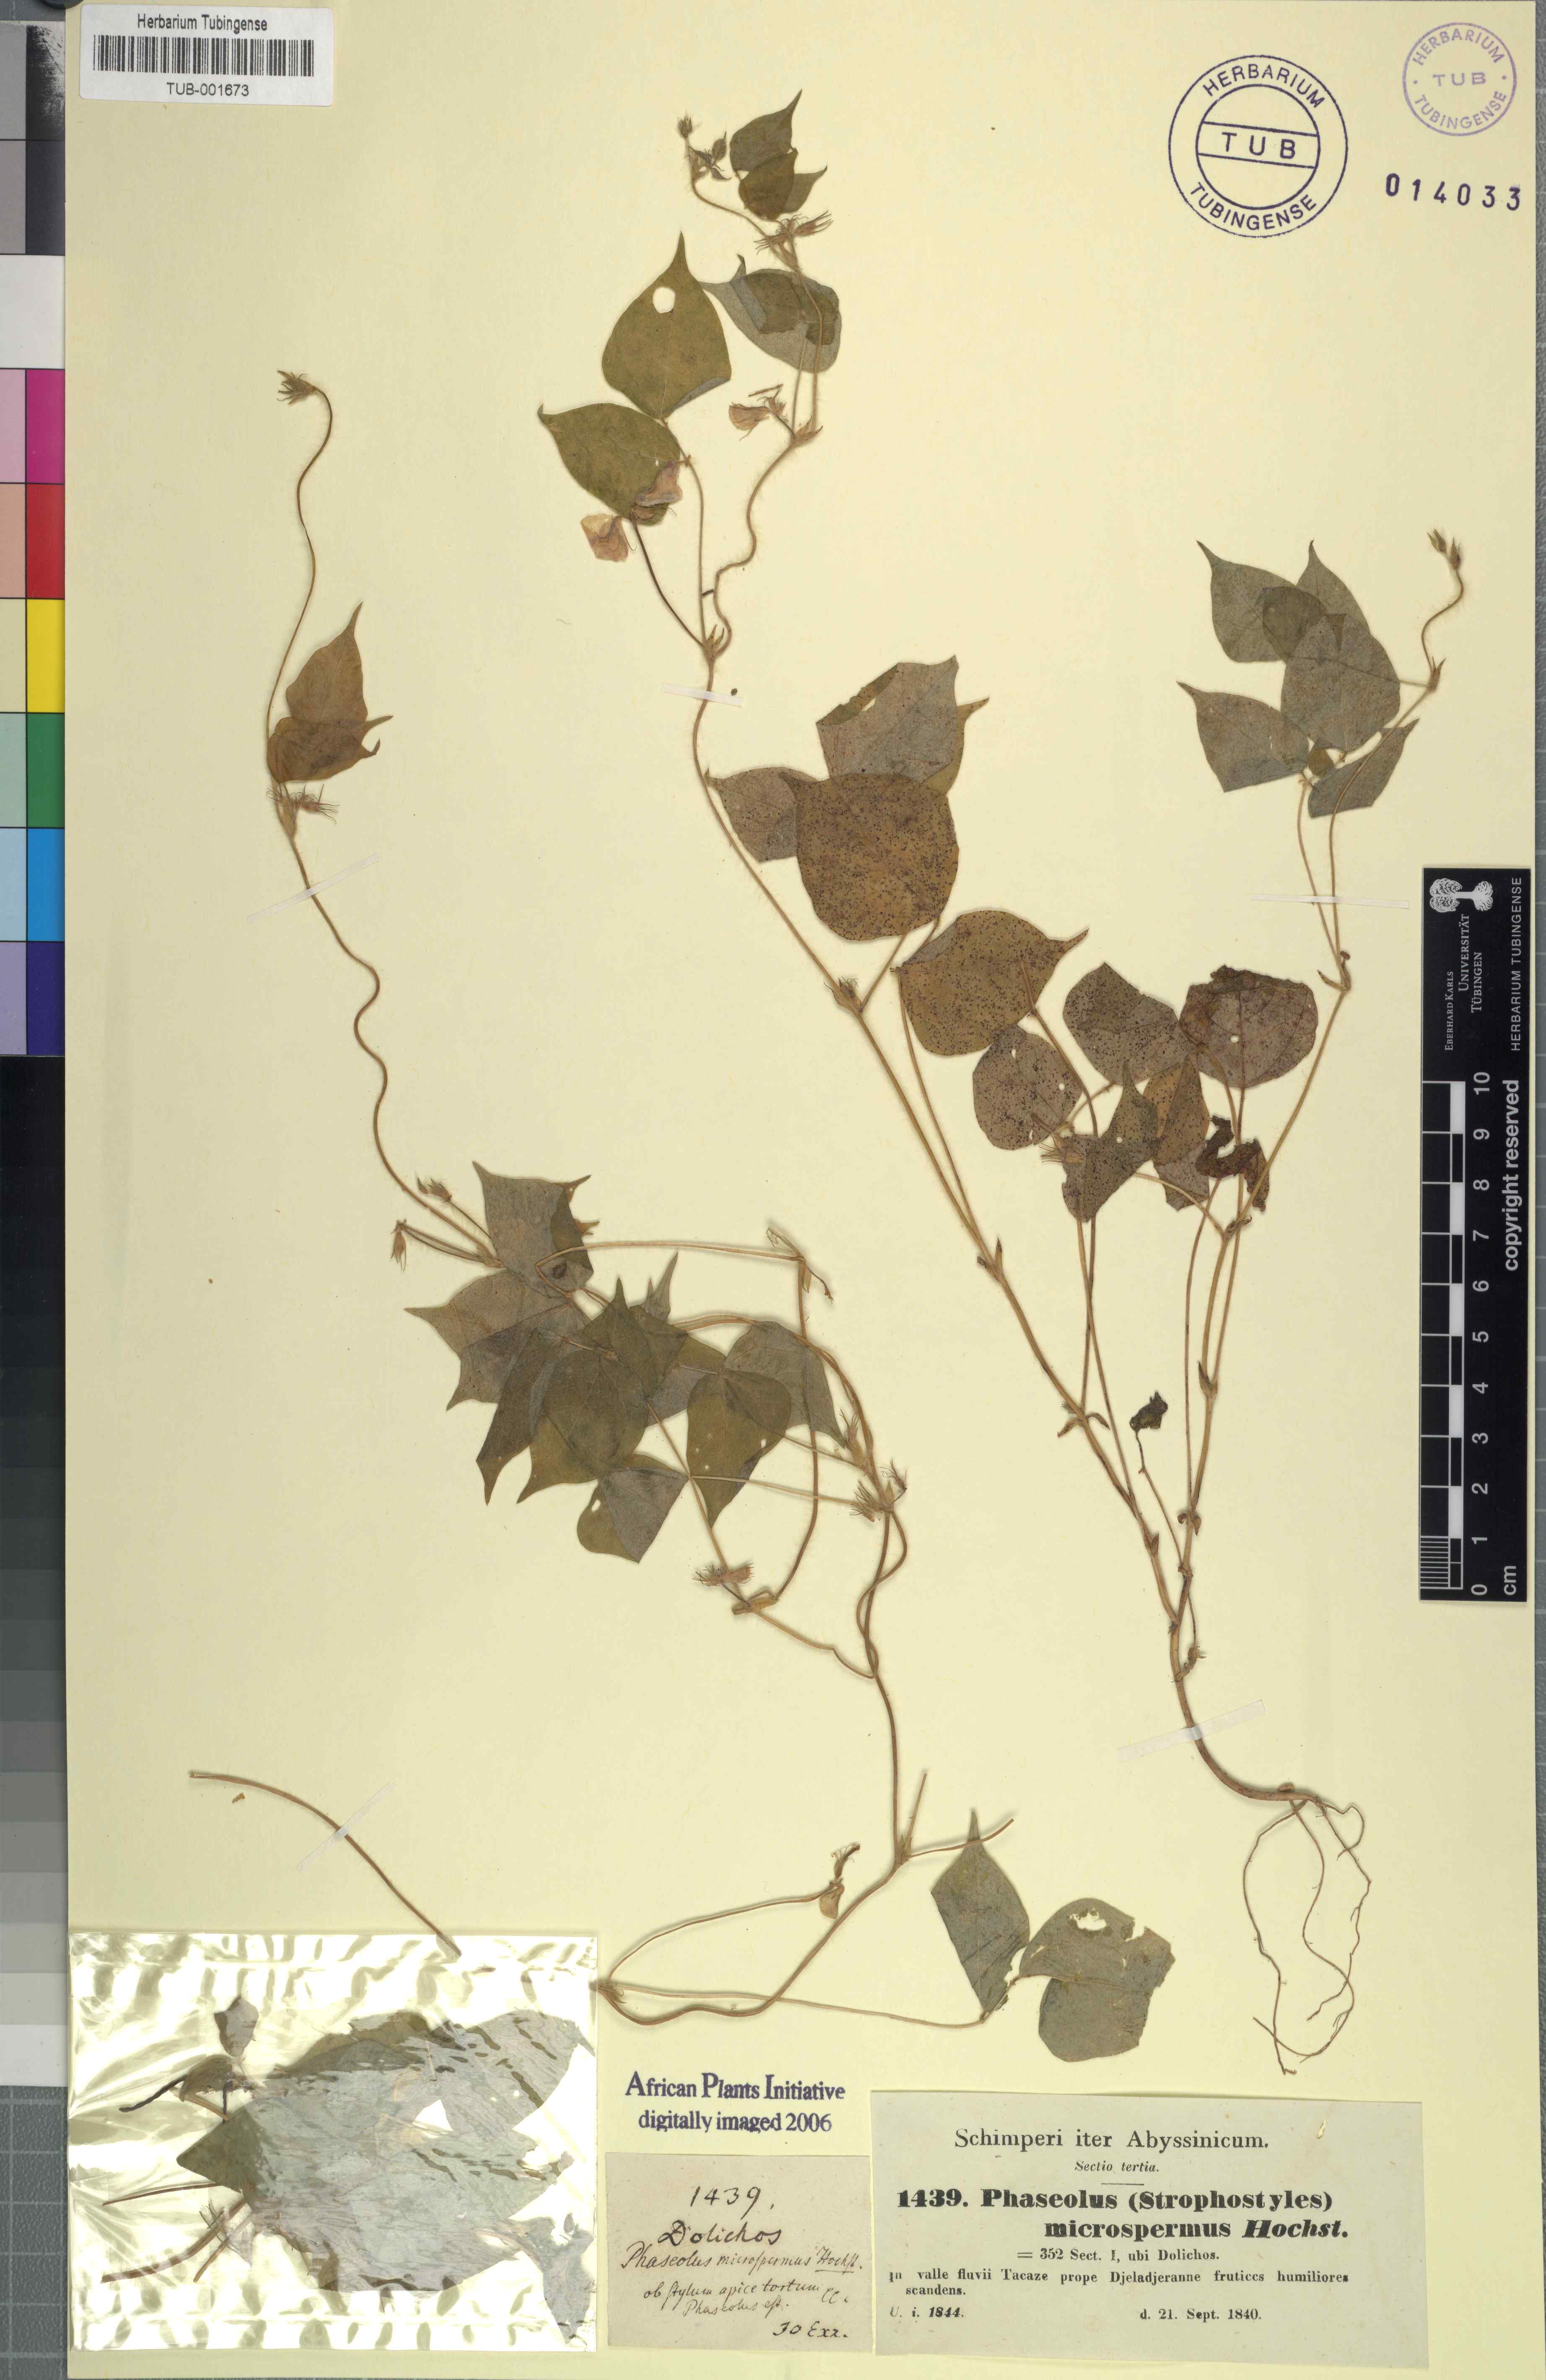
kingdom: Plantae
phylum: Tracheophyta
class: Magnoliopsida
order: Fabales
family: Fabaceae
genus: Vigna
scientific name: Vigna membranacea
